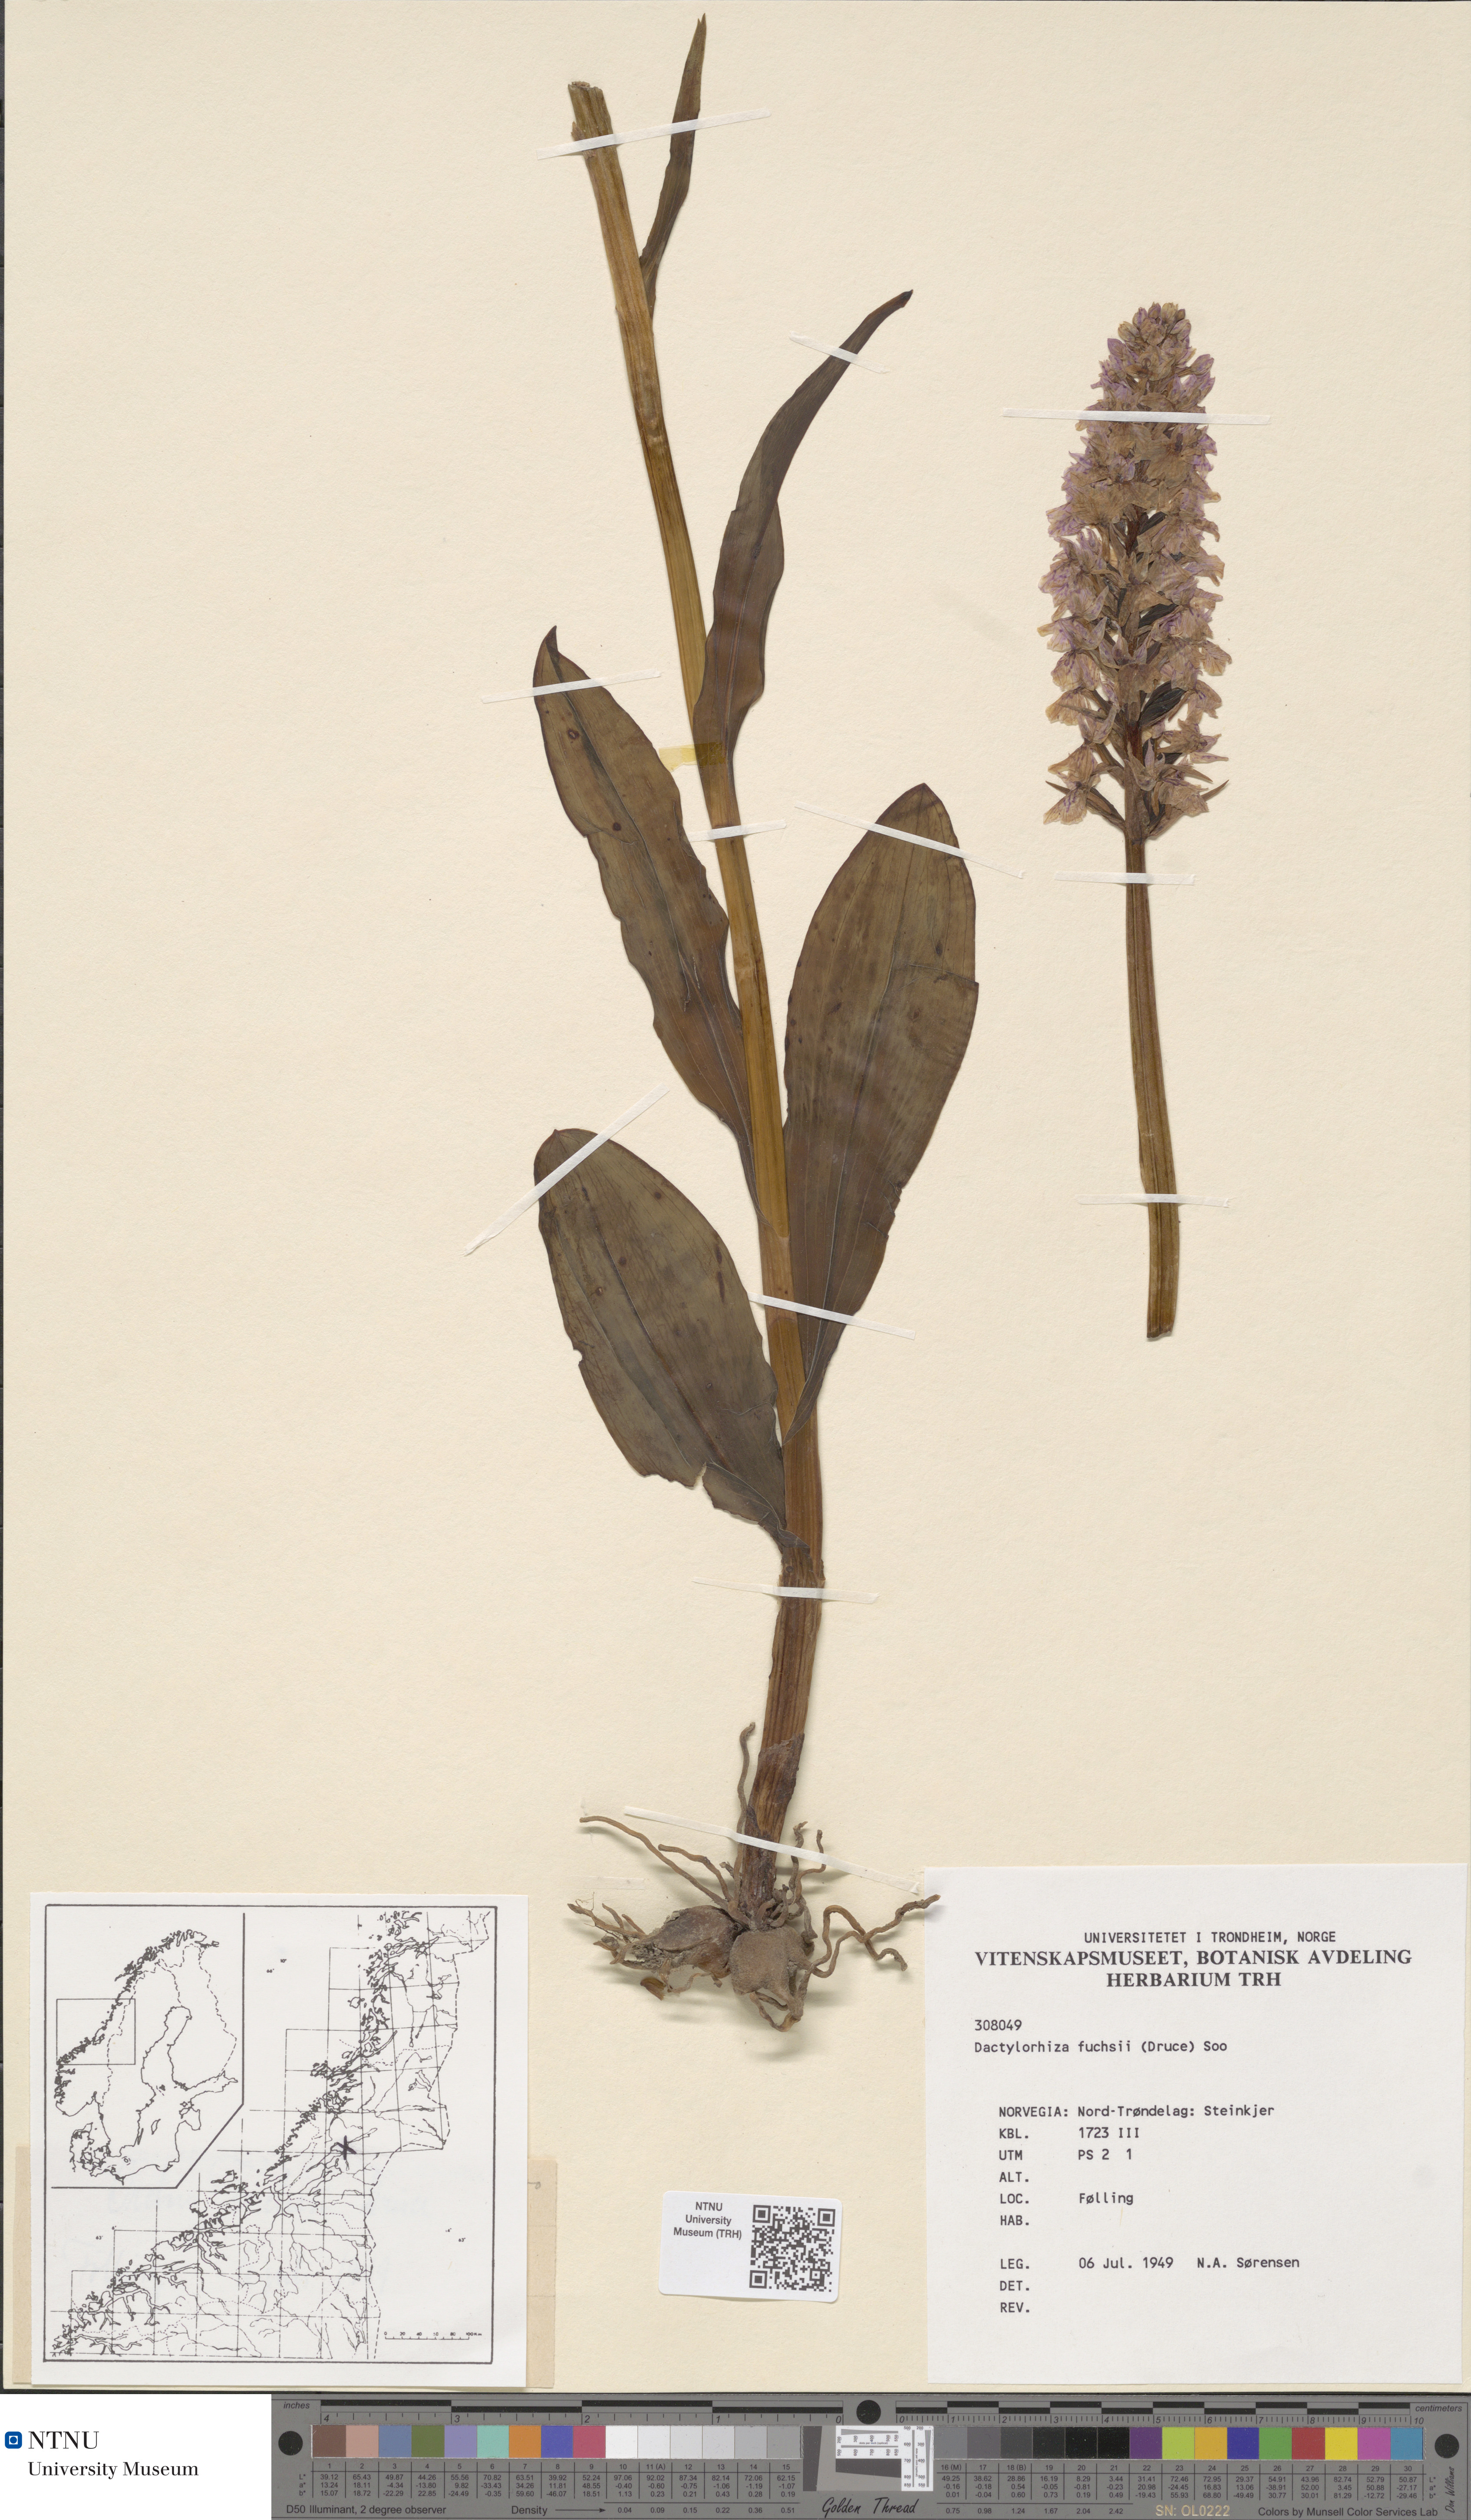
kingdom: Plantae
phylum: Tracheophyta
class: Liliopsida
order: Asparagales
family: Orchidaceae
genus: Dactylorhiza
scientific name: Dactylorhiza maculata
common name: Heath spotted-orchid
